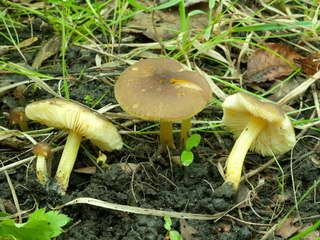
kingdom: Fungi
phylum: Basidiomycota
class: Agaricomycetes
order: Agaricales
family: Pluteaceae
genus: Pluteus
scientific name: Pluteus romellii
